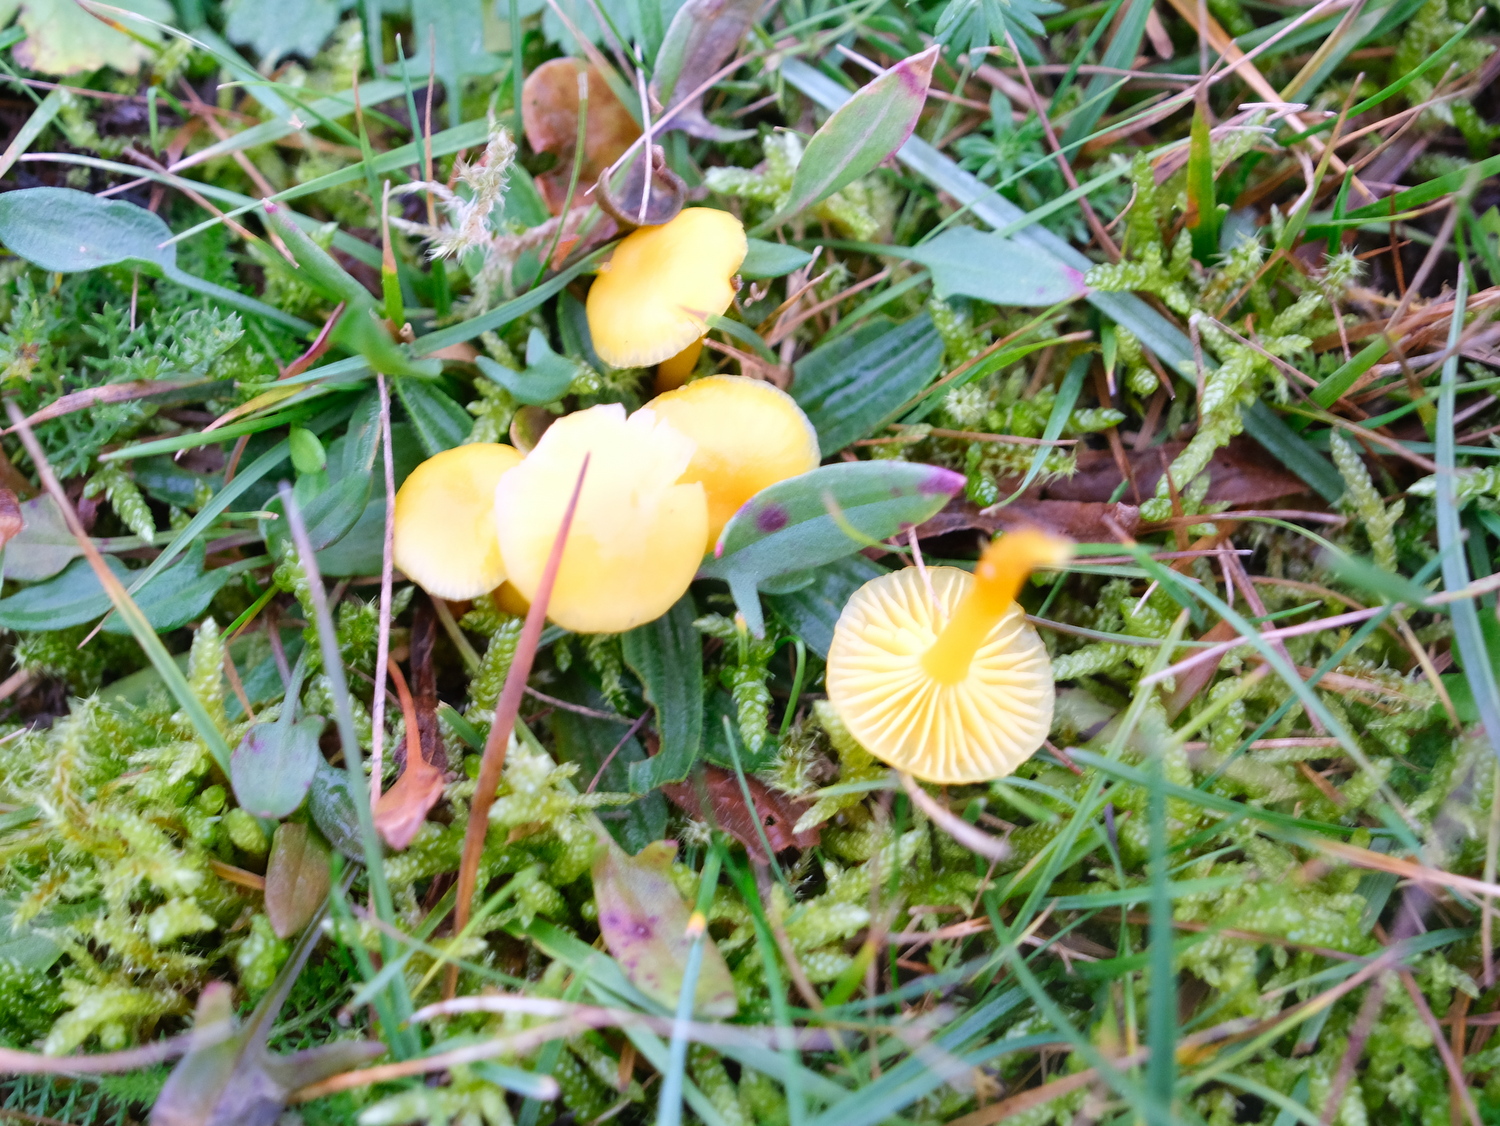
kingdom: Fungi
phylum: Basidiomycota
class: Agaricomycetes
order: Agaricales
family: Hygrophoraceae
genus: Hygrocybe
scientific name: Hygrocybe ceracea
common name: voksgul vokshat
